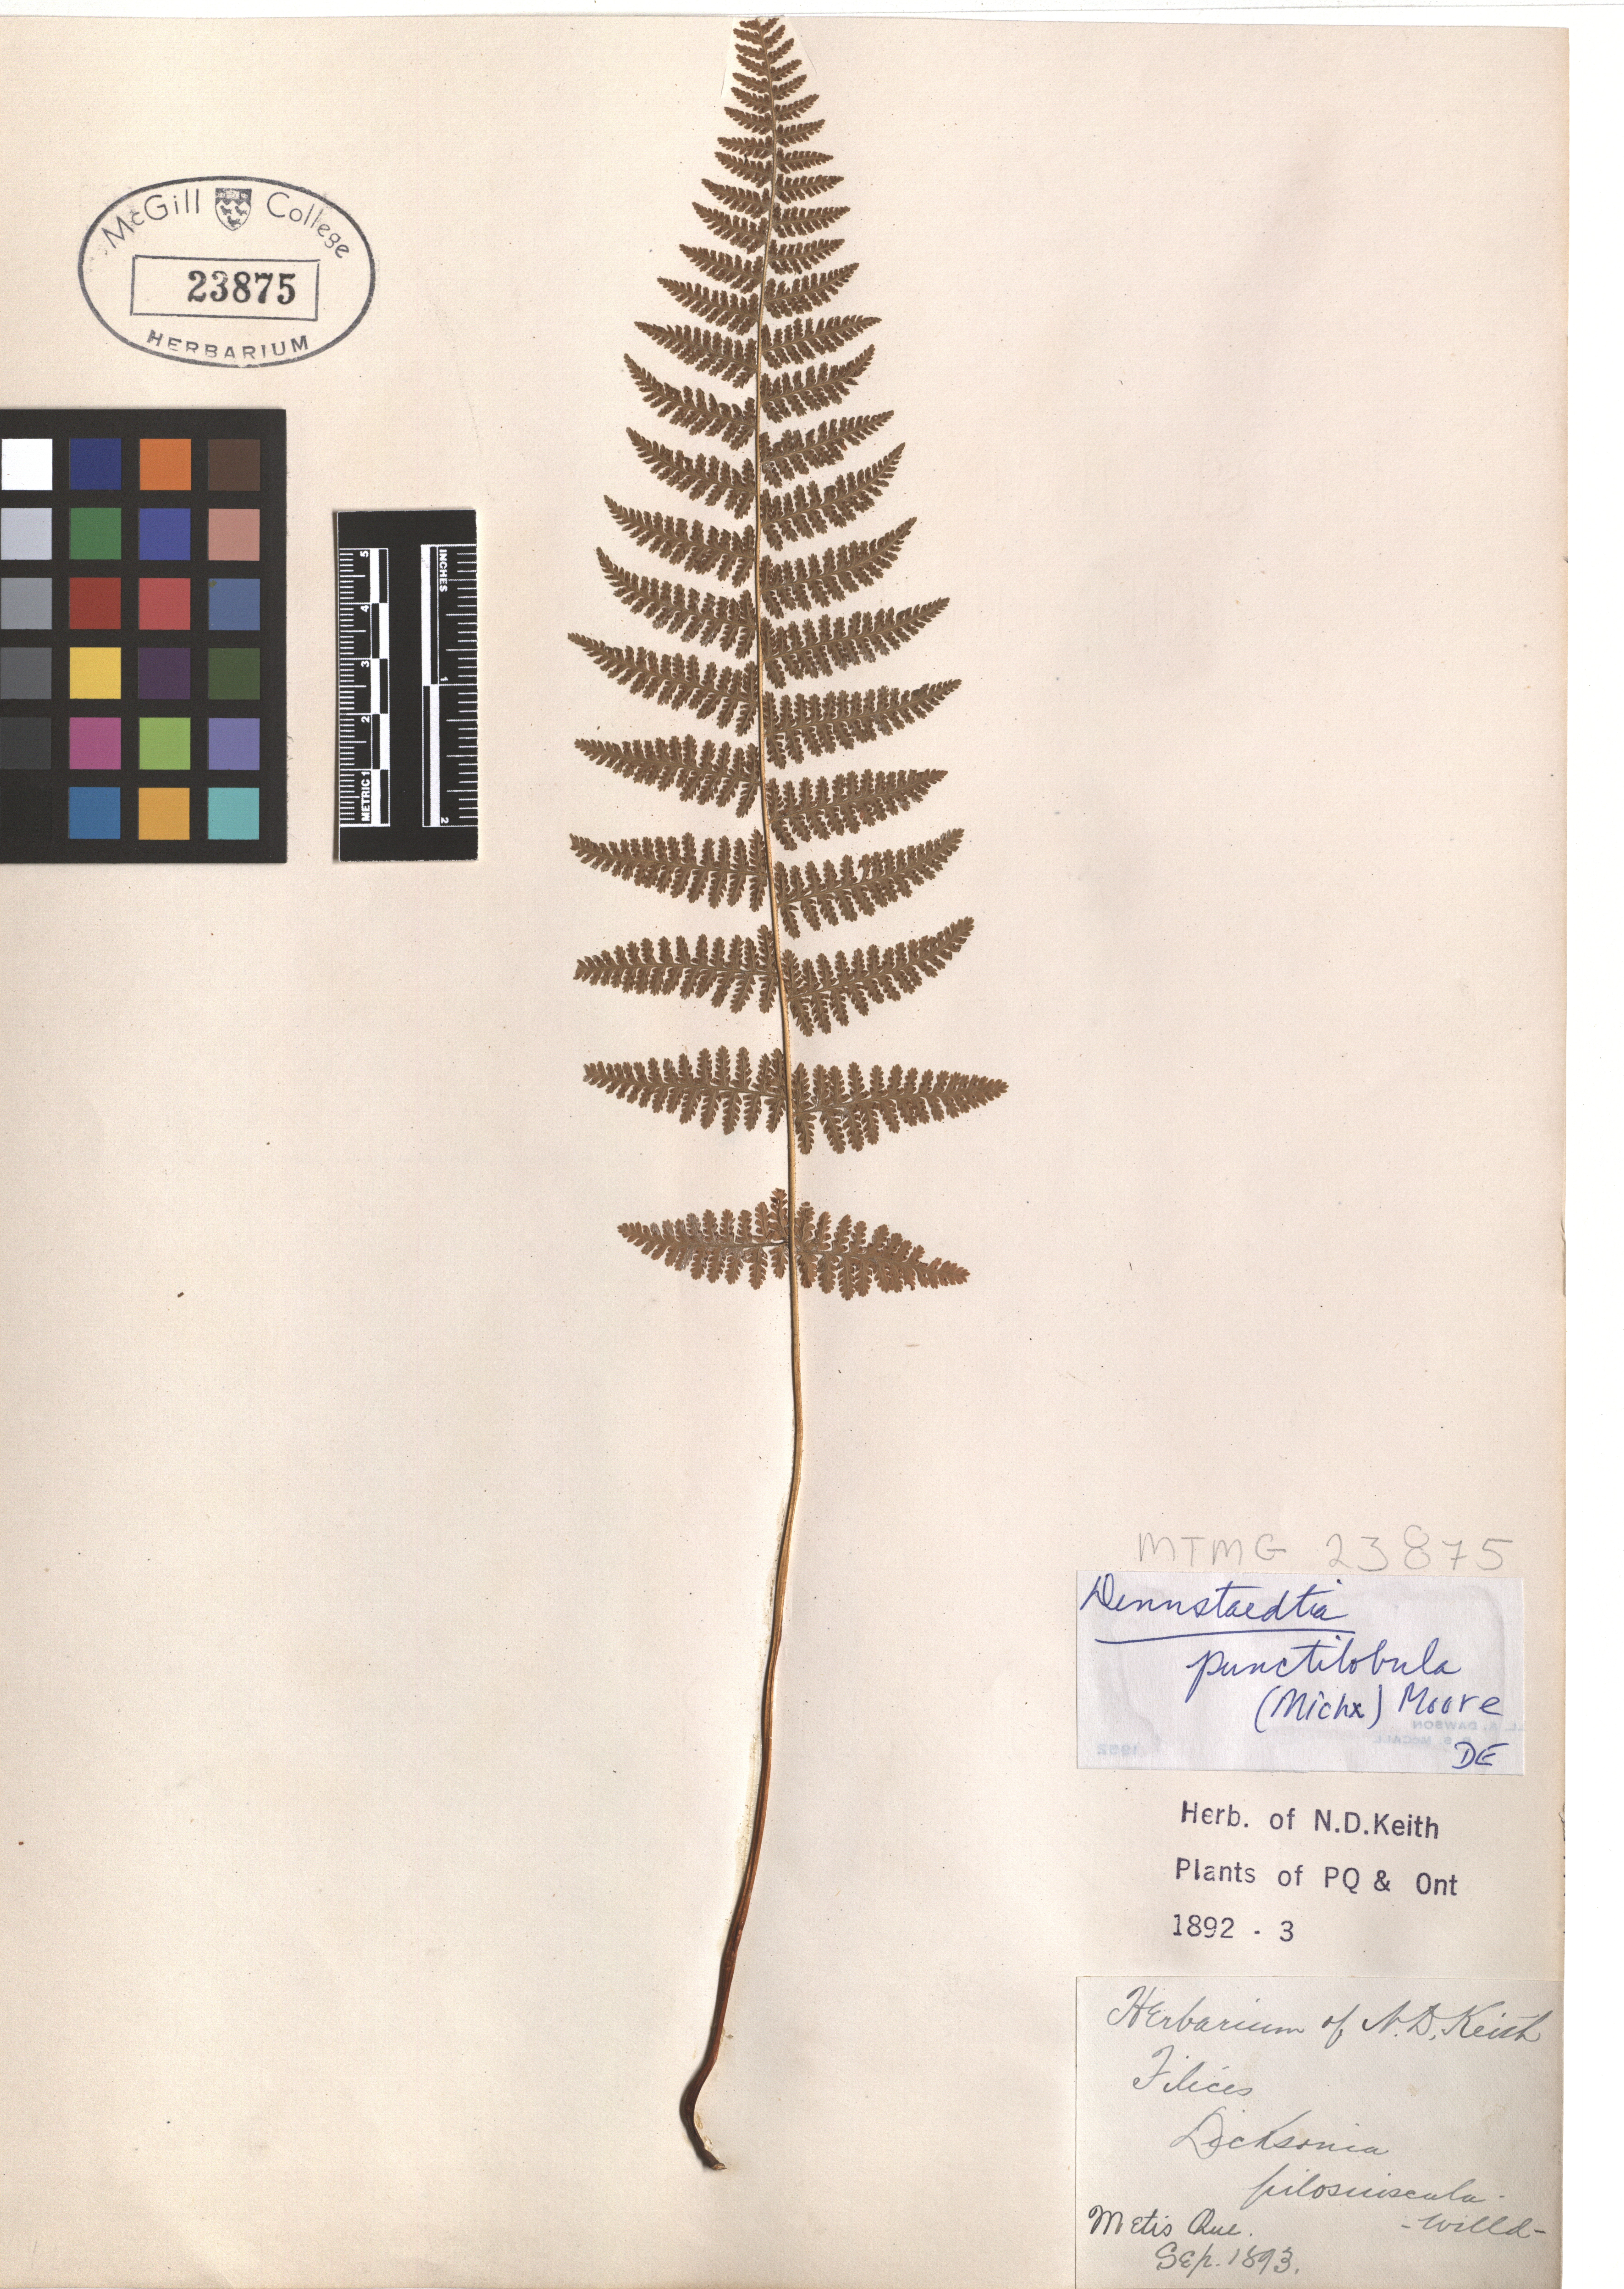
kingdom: Plantae
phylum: Tracheophyta
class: Polypodiopsida
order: Polypodiales
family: Dennstaedtiaceae
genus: Sitobolium
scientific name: Sitobolium punctilobum
